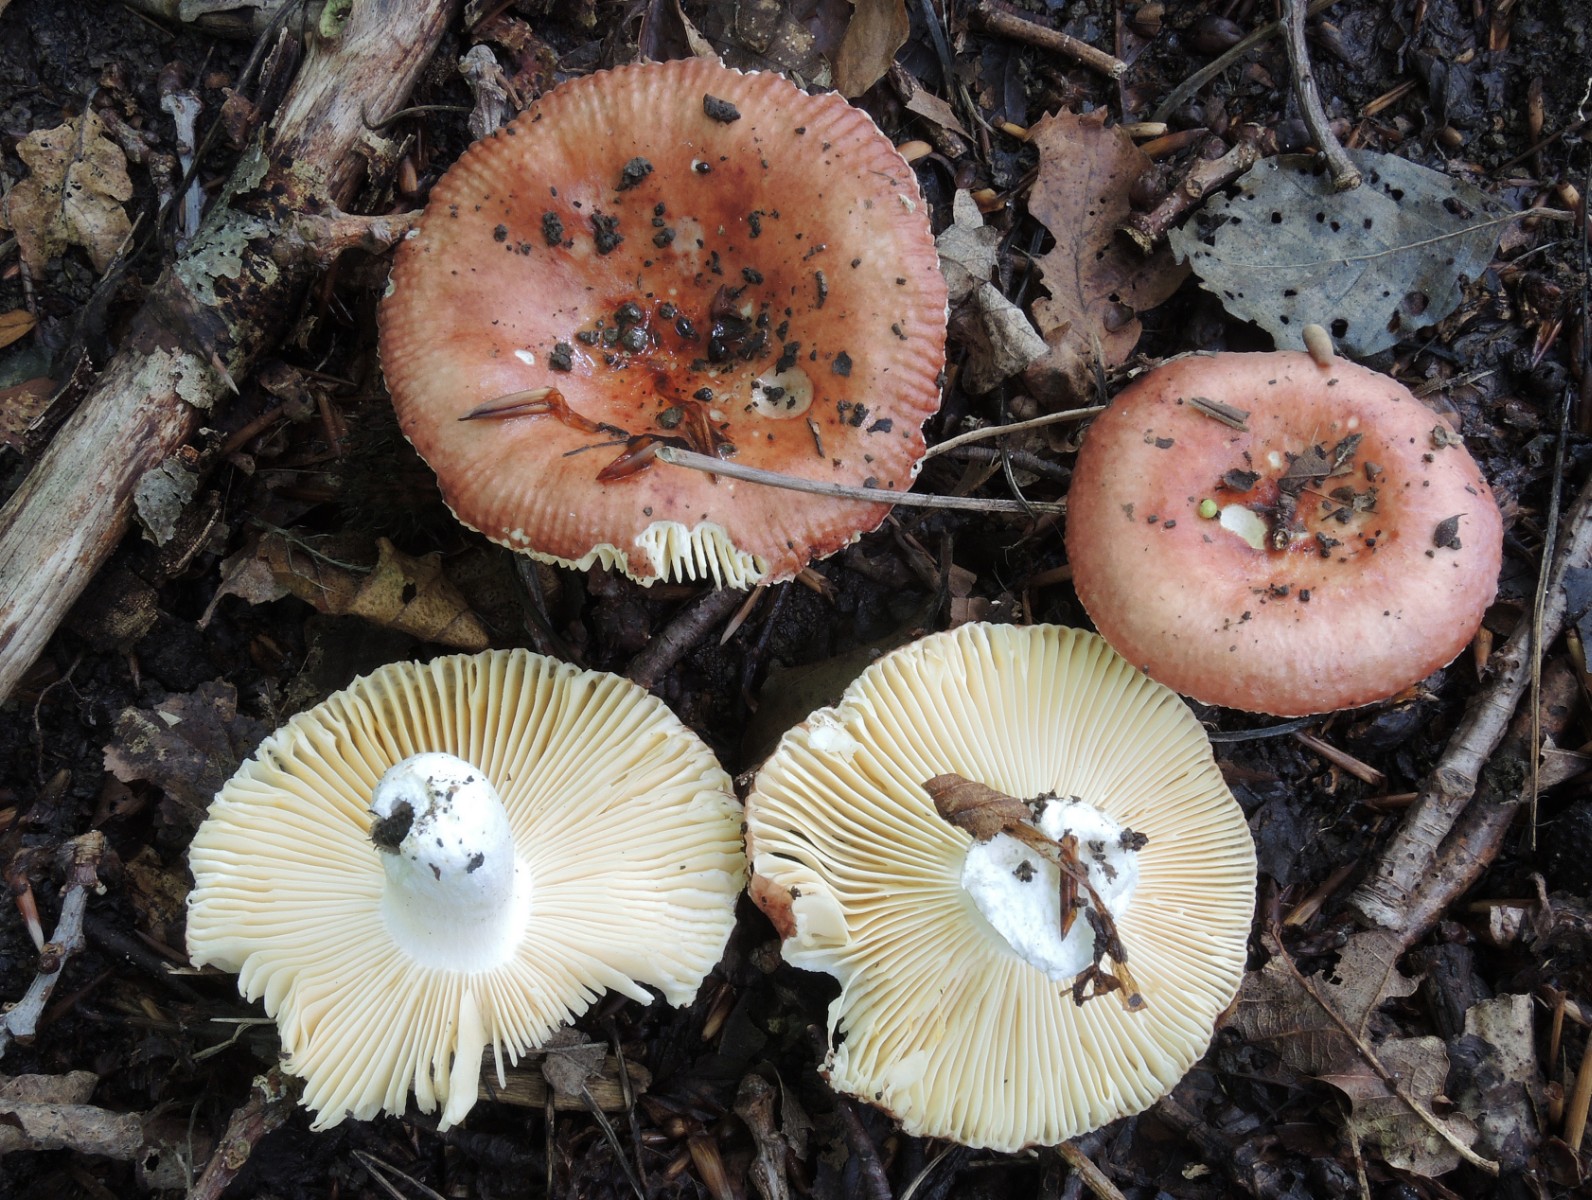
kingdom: Fungi
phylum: Basidiomycota
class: Agaricomycetes
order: Russulales
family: Russulaceae
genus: Russula
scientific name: Russula
